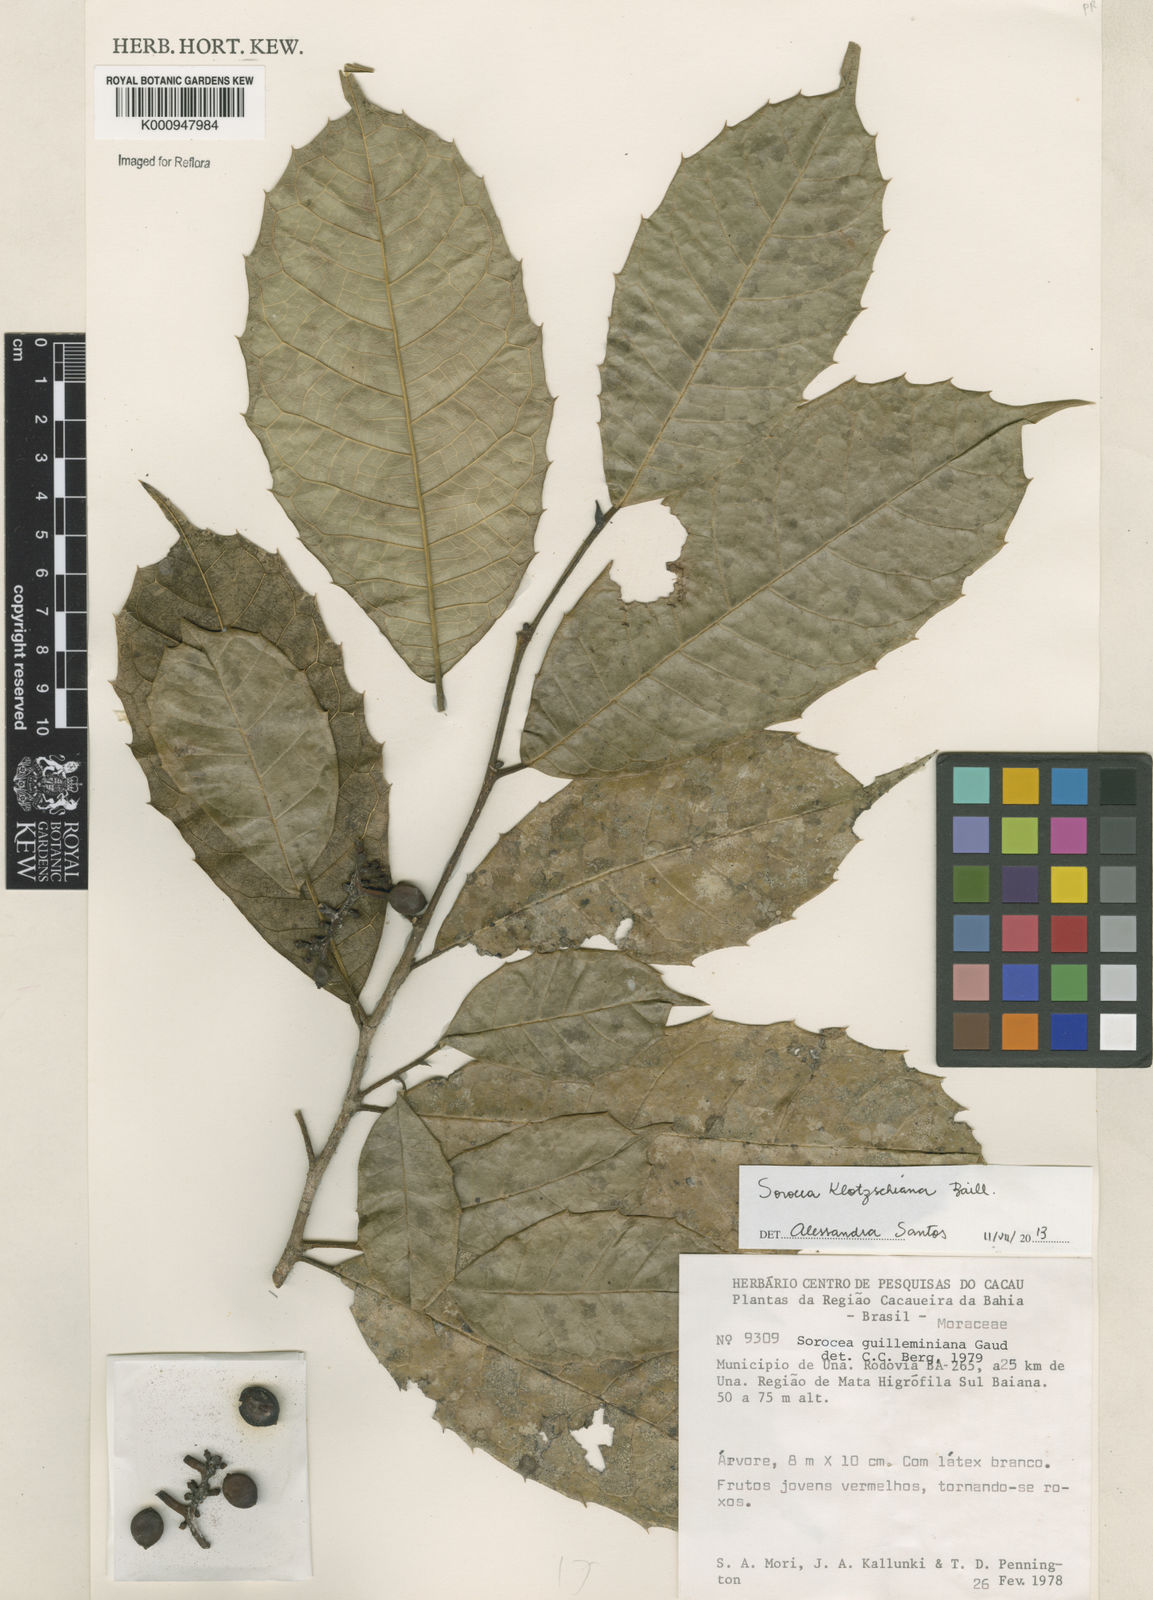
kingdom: Plantae
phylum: Tracheophyta
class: Magnoliopsida
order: Rosales
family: Moraceae
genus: Sorocea
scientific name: Sorocea guilleminiana
